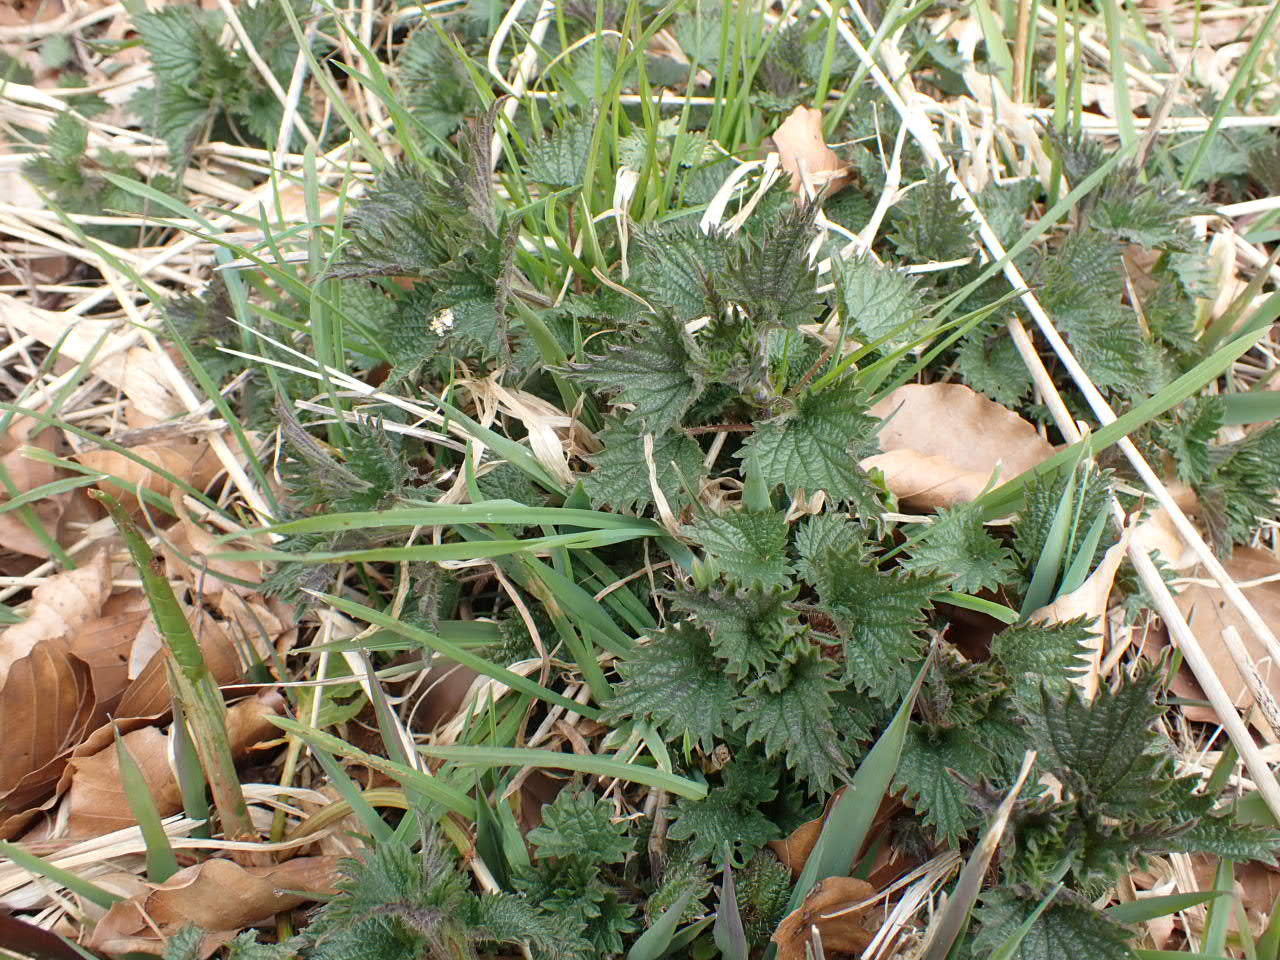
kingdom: Plantae
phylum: Tracheophyta
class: Magnoliopsida
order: Rosales
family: Urticaceae
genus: Urtica
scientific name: Urtica dioica
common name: Stor nælde
